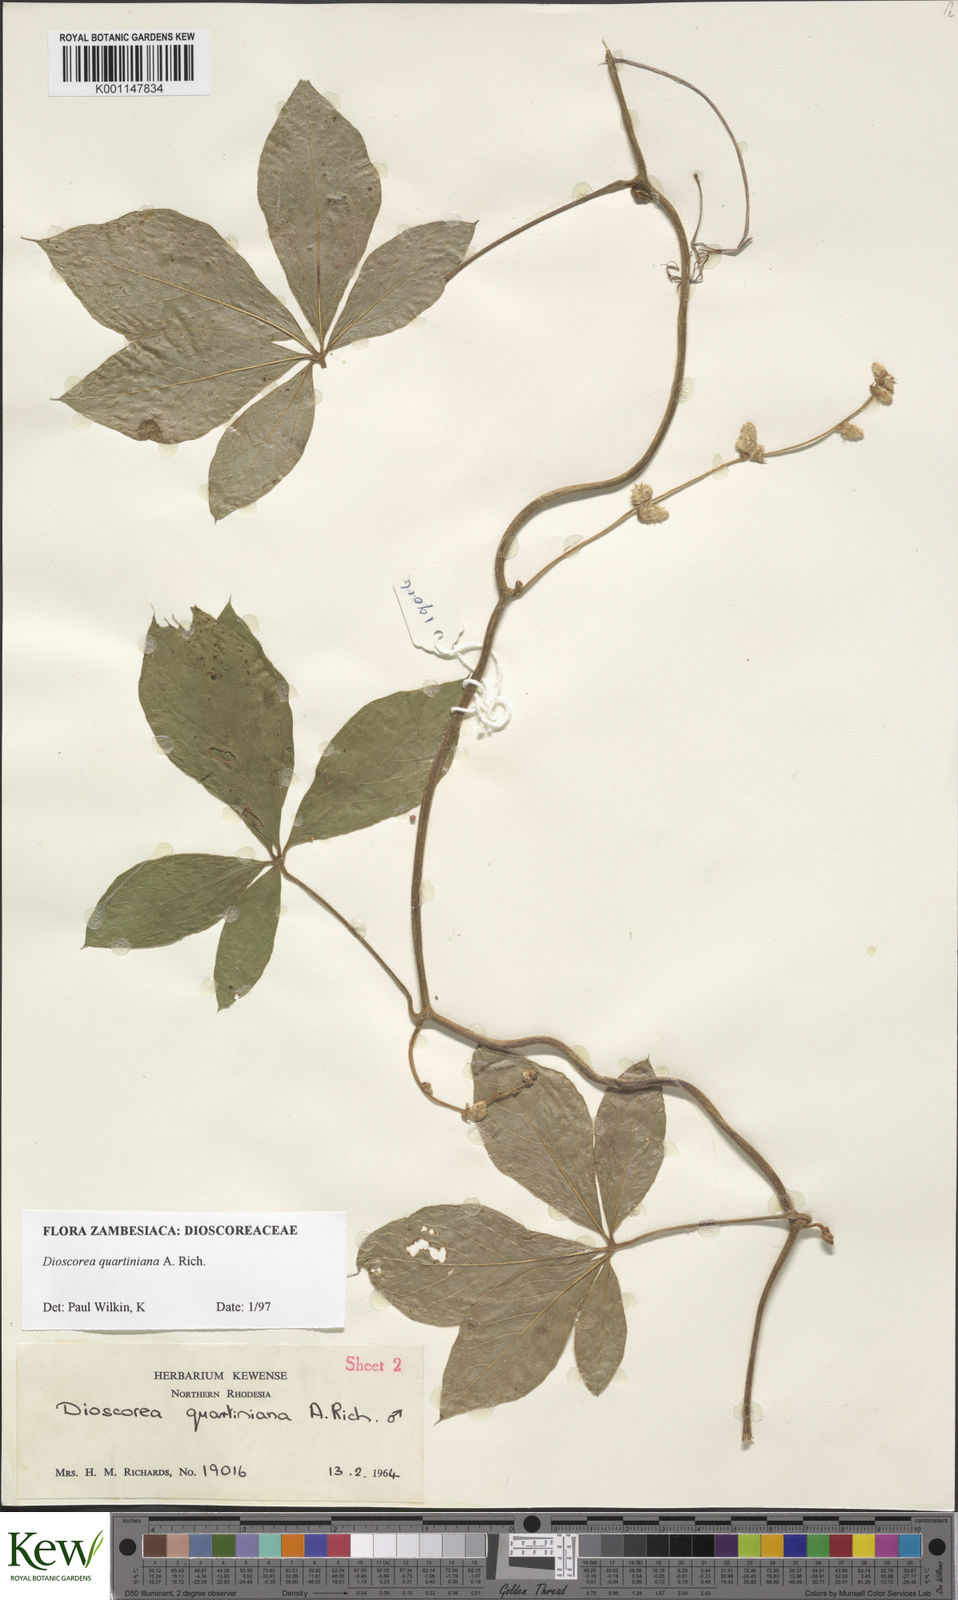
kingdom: Plantae
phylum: Tracheophyta
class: Liliopsida
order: Dioscoreales
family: Dioscoreaceae
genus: Dioscorea
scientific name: Dioscorea quartiniana
